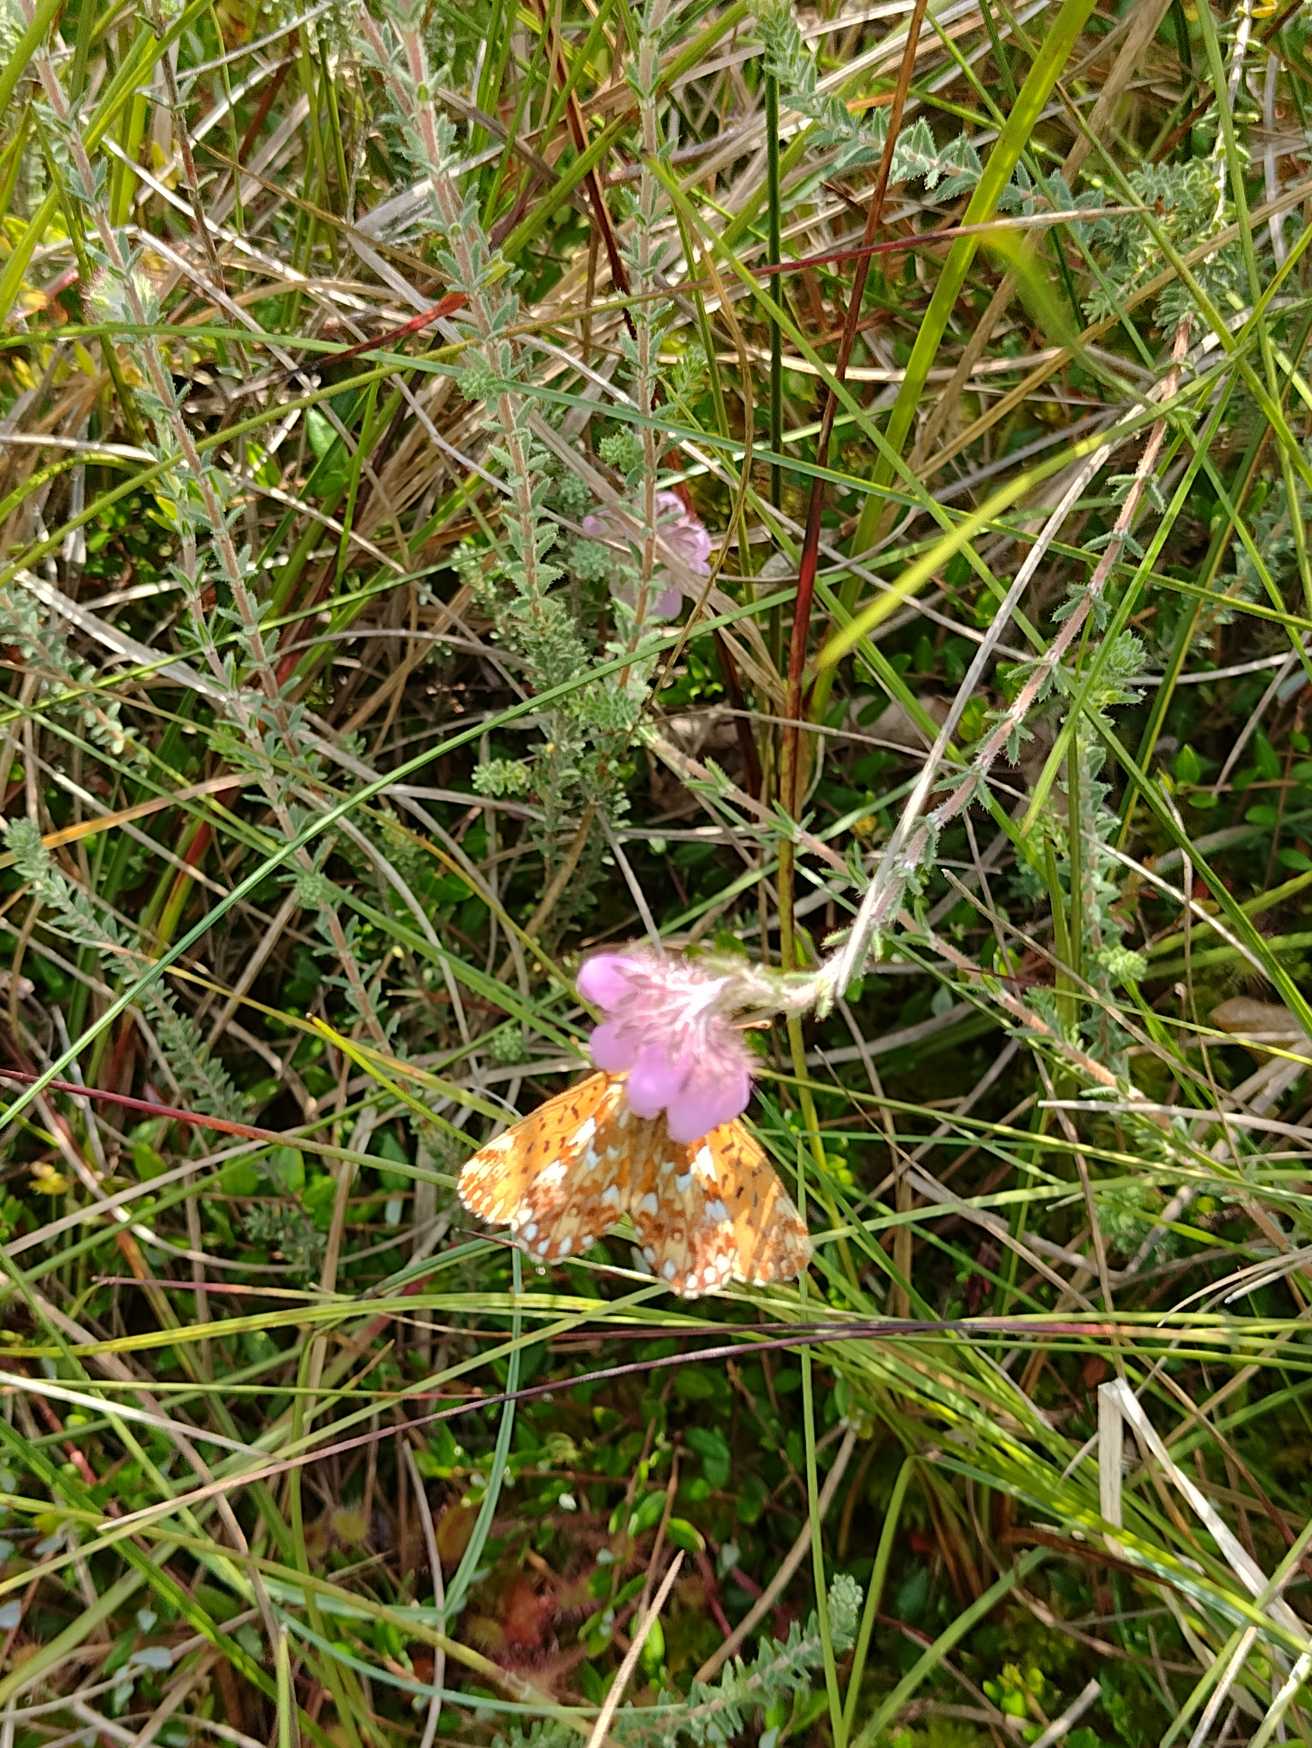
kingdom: Animalia
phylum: Arthropoda
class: Insecta
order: Lepidoptera
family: Nymphalidae
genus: Boloria
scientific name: Boloria aquilonaris
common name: Moseperlemorsommerfugl
